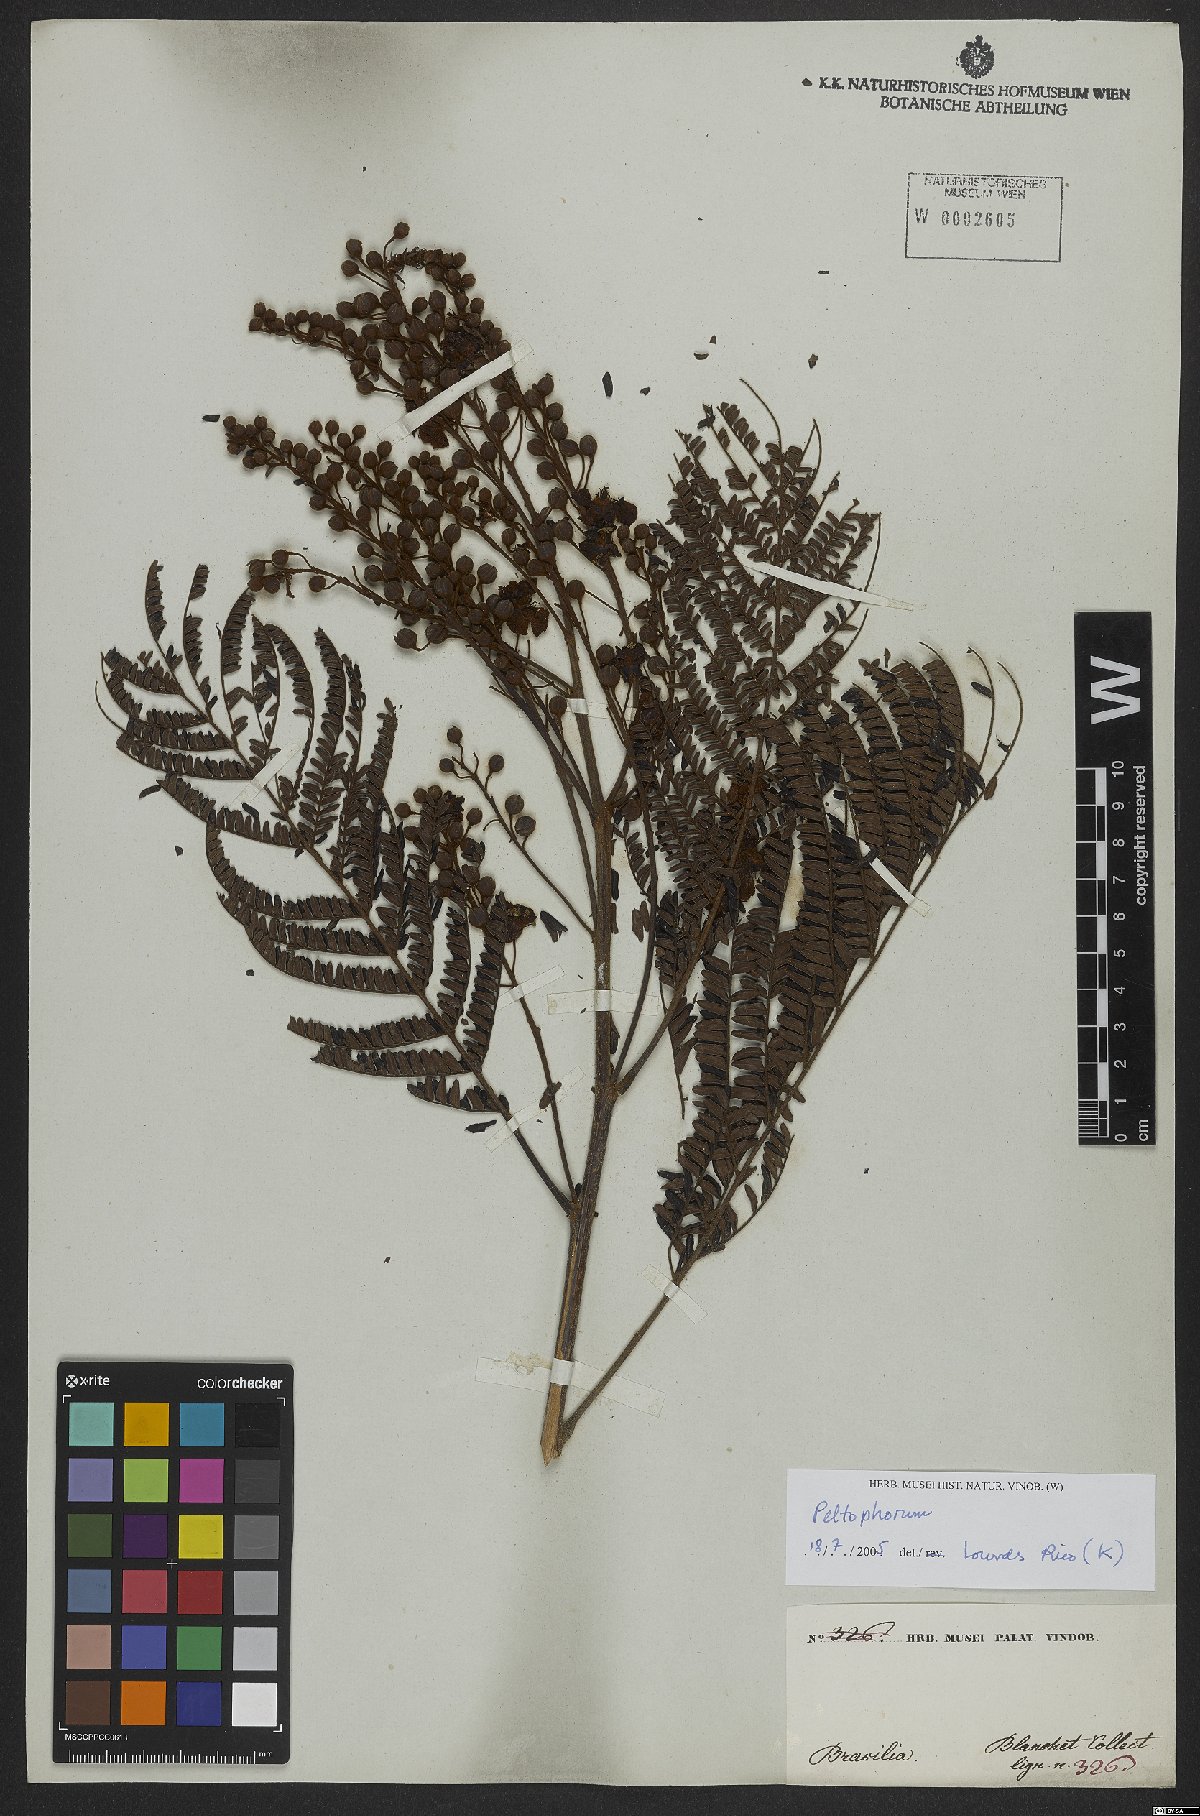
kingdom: Plantae
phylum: Tracheophyta
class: Magnoliopsida
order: Fabales
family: Fabaceae
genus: Peltophorum
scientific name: Peltophorum
